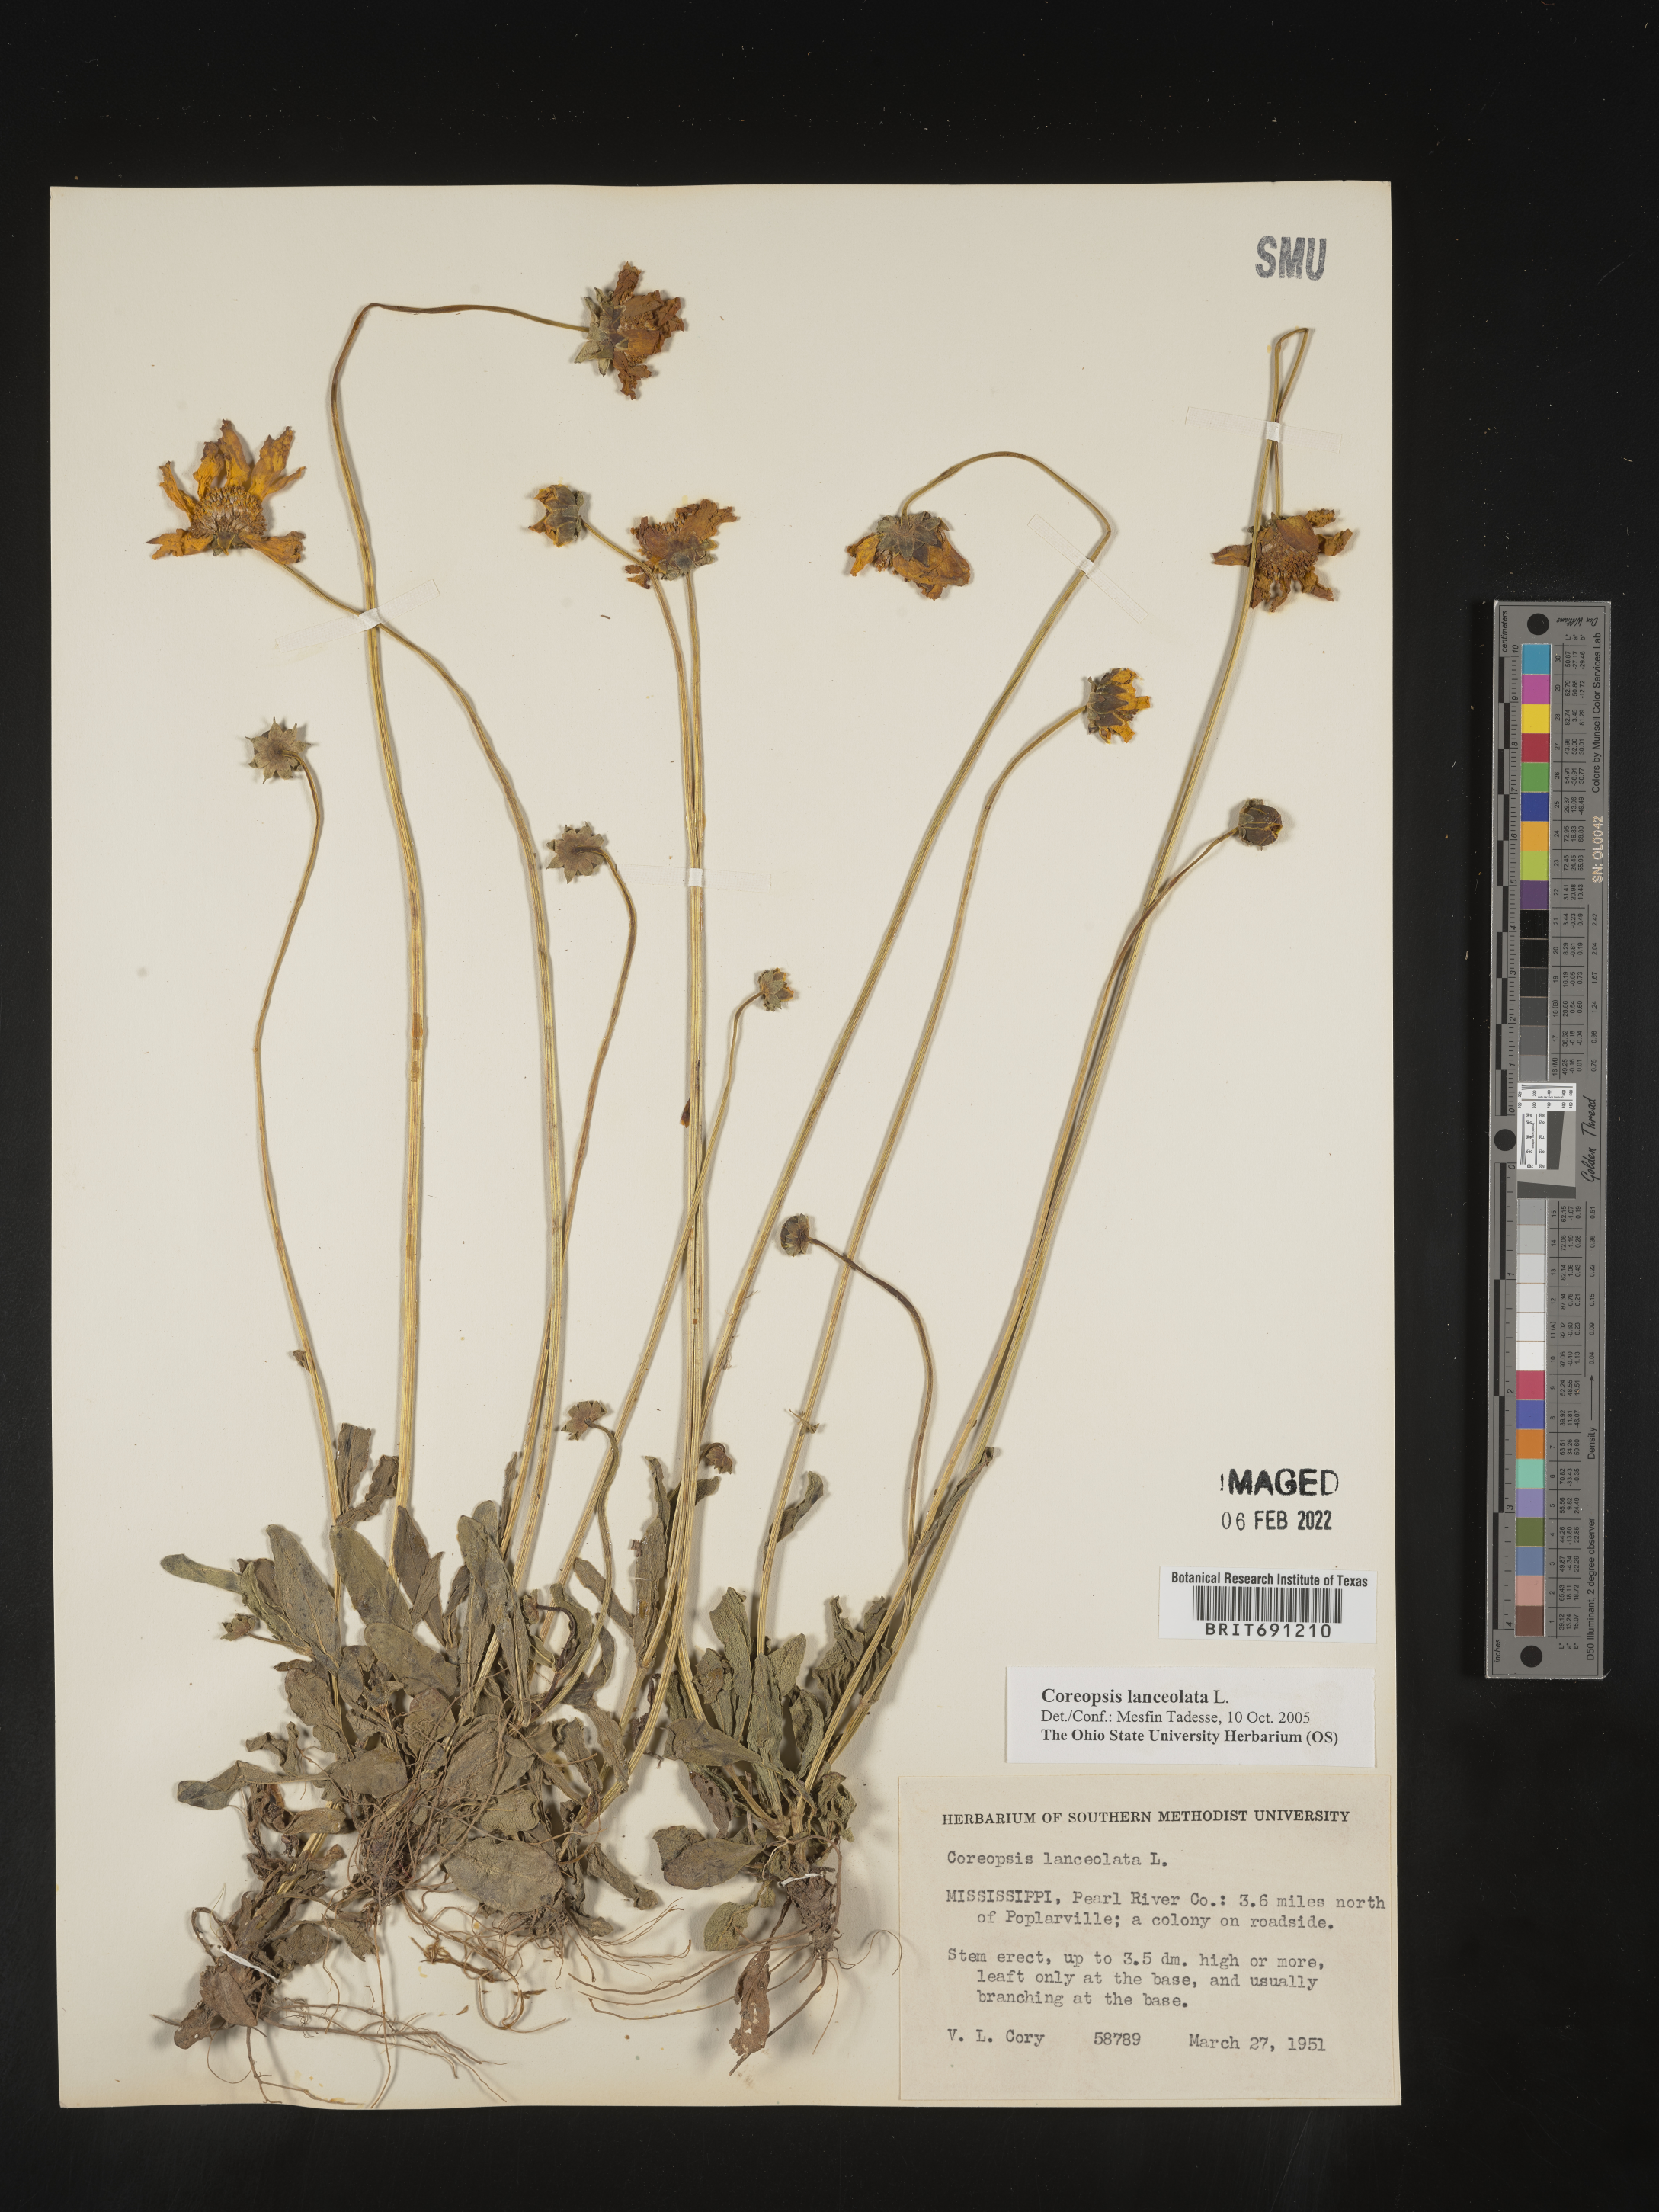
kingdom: Plantae
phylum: Tracheophyta
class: Magnoliopsida
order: Asterales
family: Asteraceae
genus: Coreopsis
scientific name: Coreopsis lanceolata
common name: Garden coreopsis
